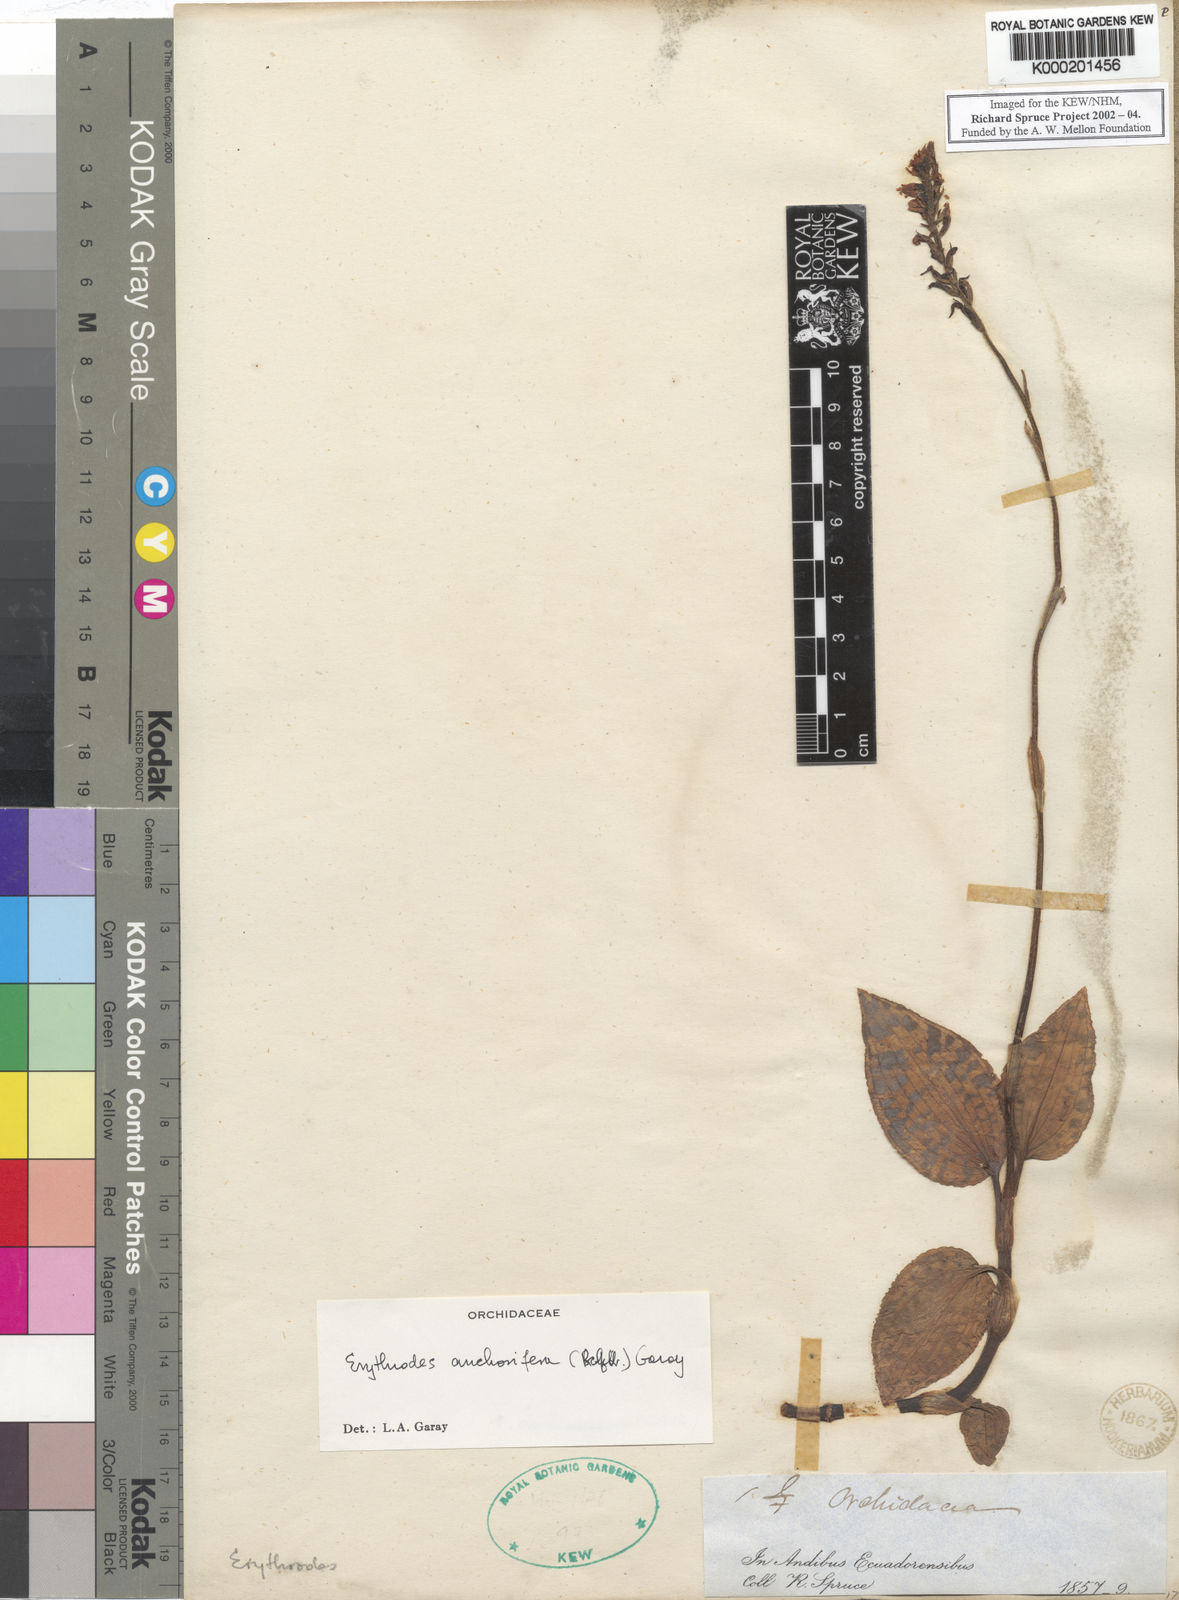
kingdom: Plantae
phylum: Tracheophyta
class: Liliopsida
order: Asparagales
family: Orchidaceae
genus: Microchilus
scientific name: Microchilus anchorifer
